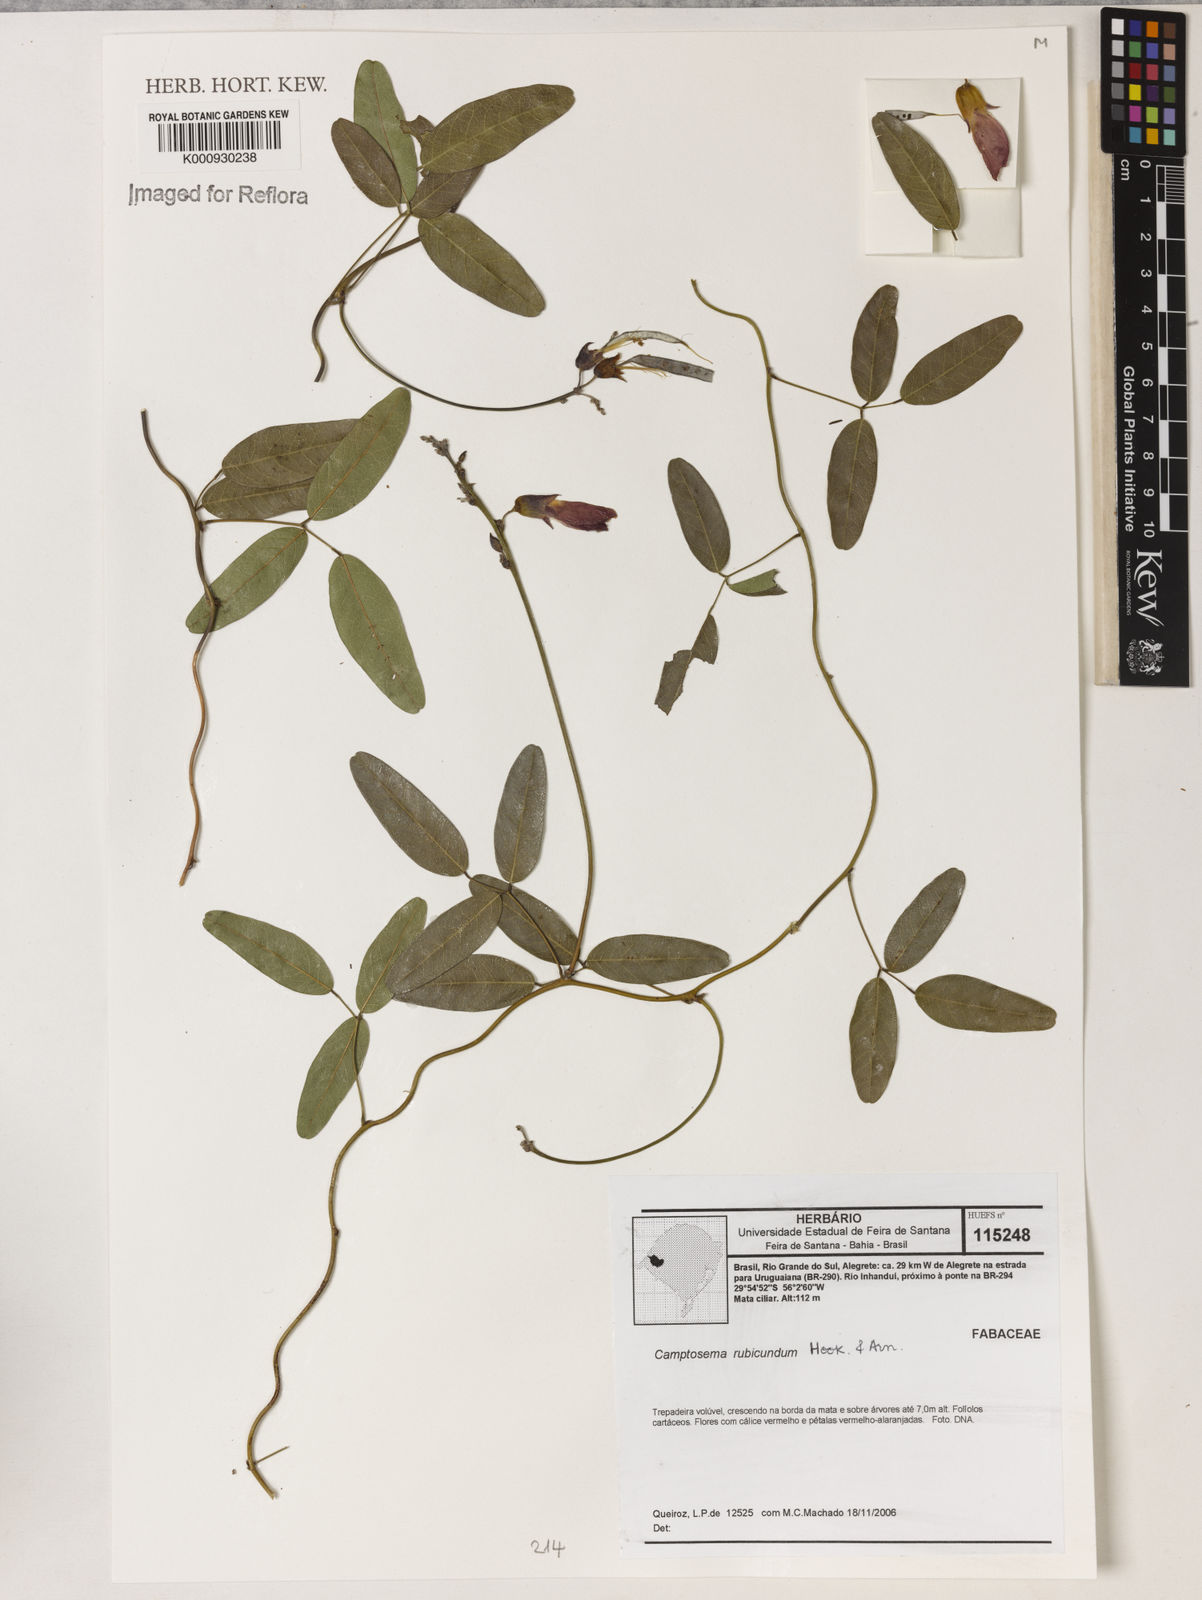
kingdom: Plantae
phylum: Tracheophyta
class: Magnoliopsida
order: Fabales
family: Fabaceae
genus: Camptosema
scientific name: Camptosema rubicundum
